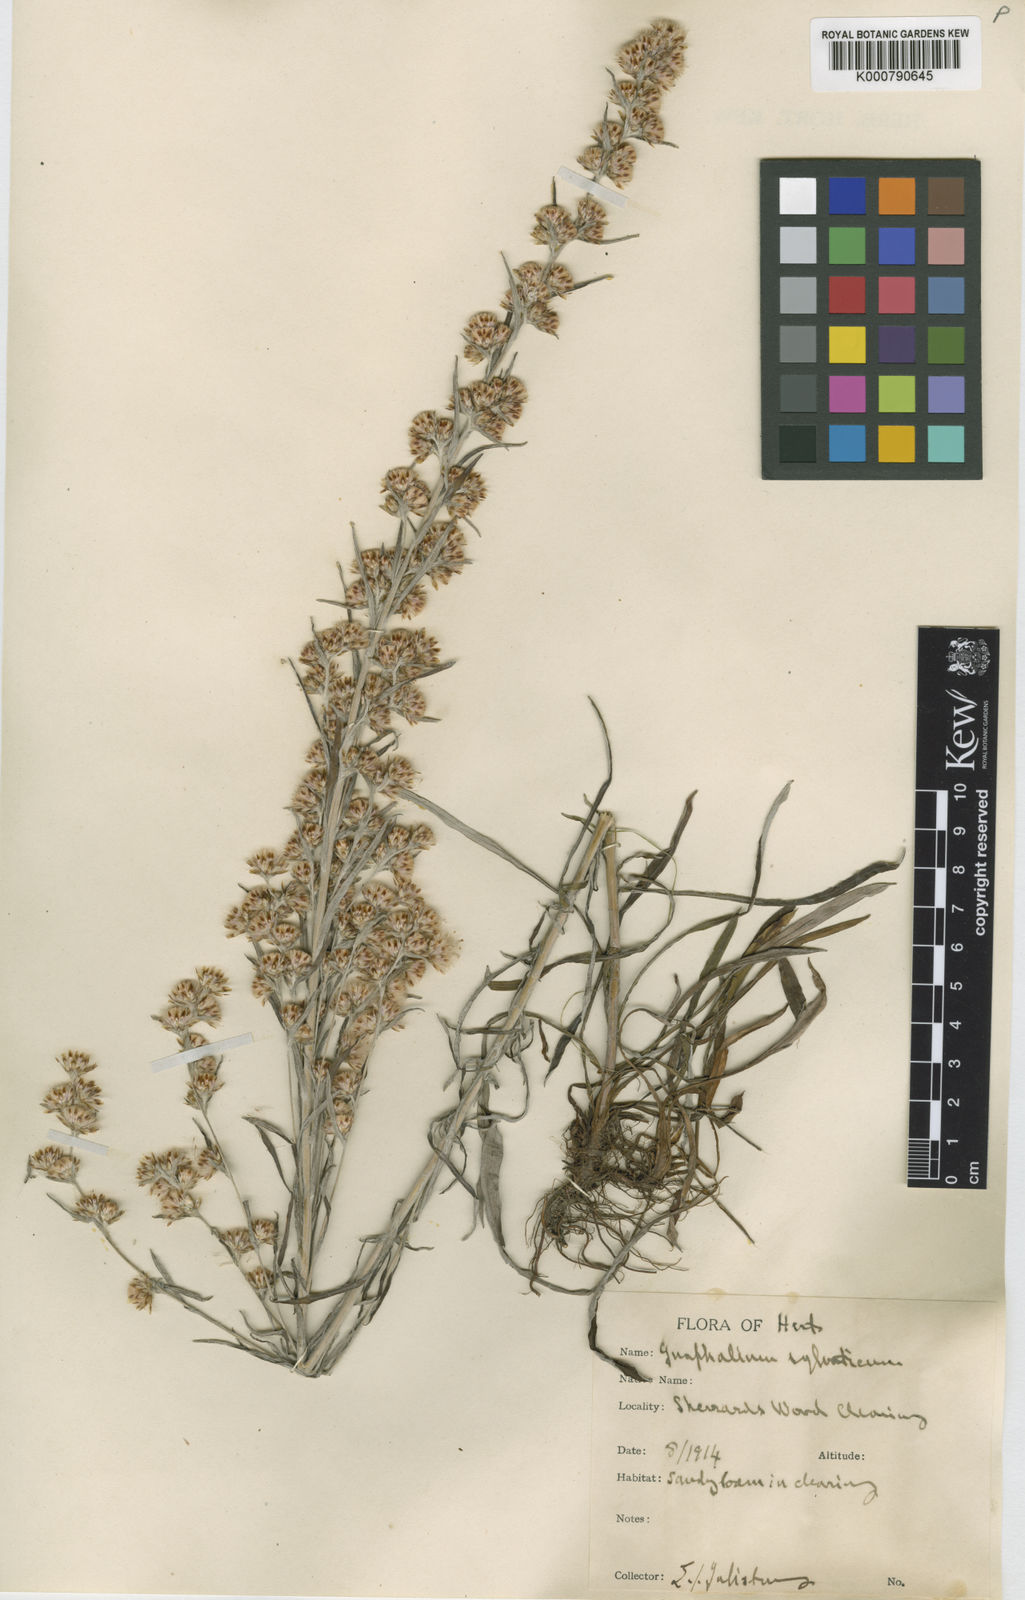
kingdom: Plantae
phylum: Tracheophyta
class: Magnoliopsida
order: Asterales
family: Asteraceae
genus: Omalotheca
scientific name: Omalotheca sylvatica
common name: Heath cudweed
